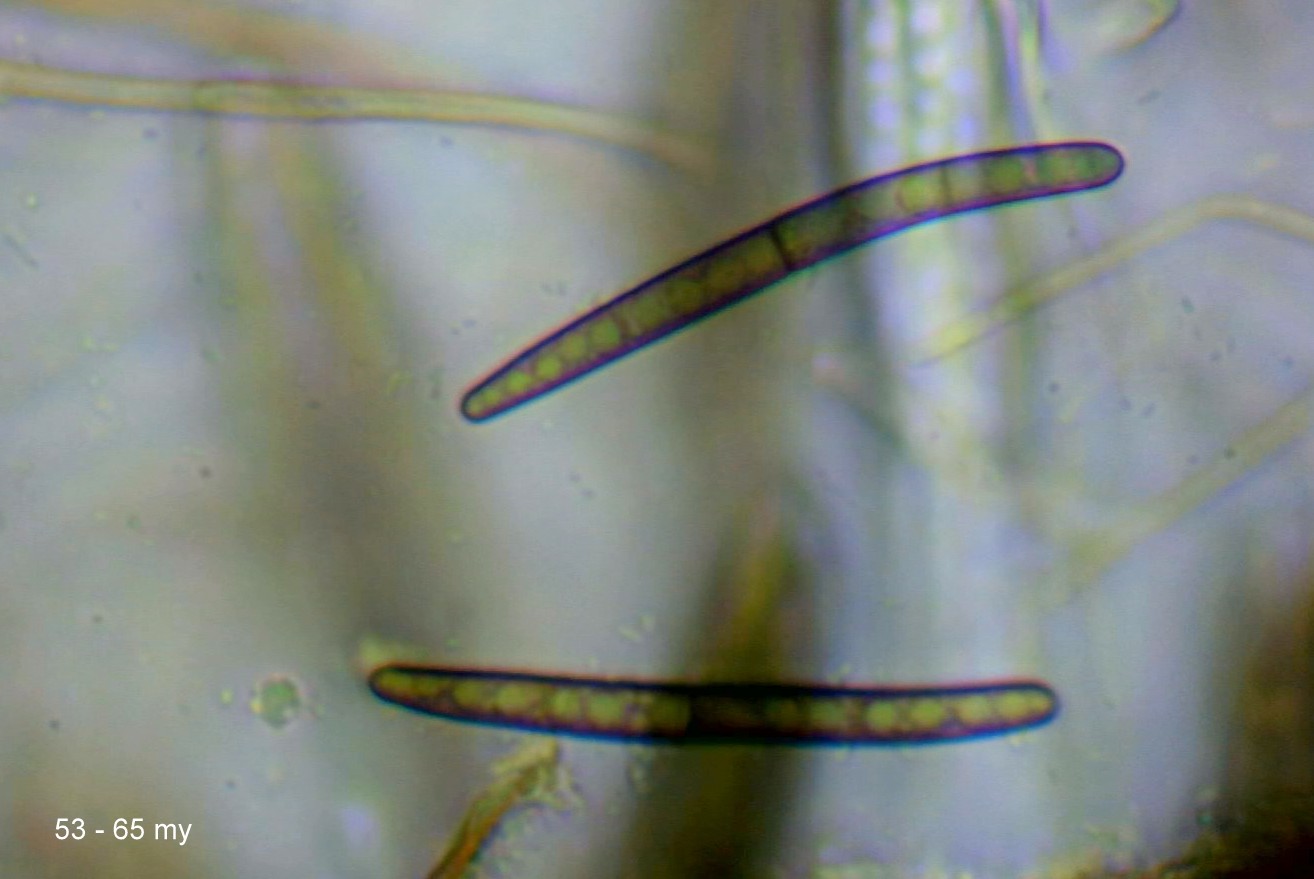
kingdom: Fungi
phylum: Ascomycota
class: Geoglossomycetes
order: Geoglossales
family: Geoglossaceae
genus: Glutinoglossum
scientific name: Glutinoglossum glutinosum
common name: slimet jordtunge
